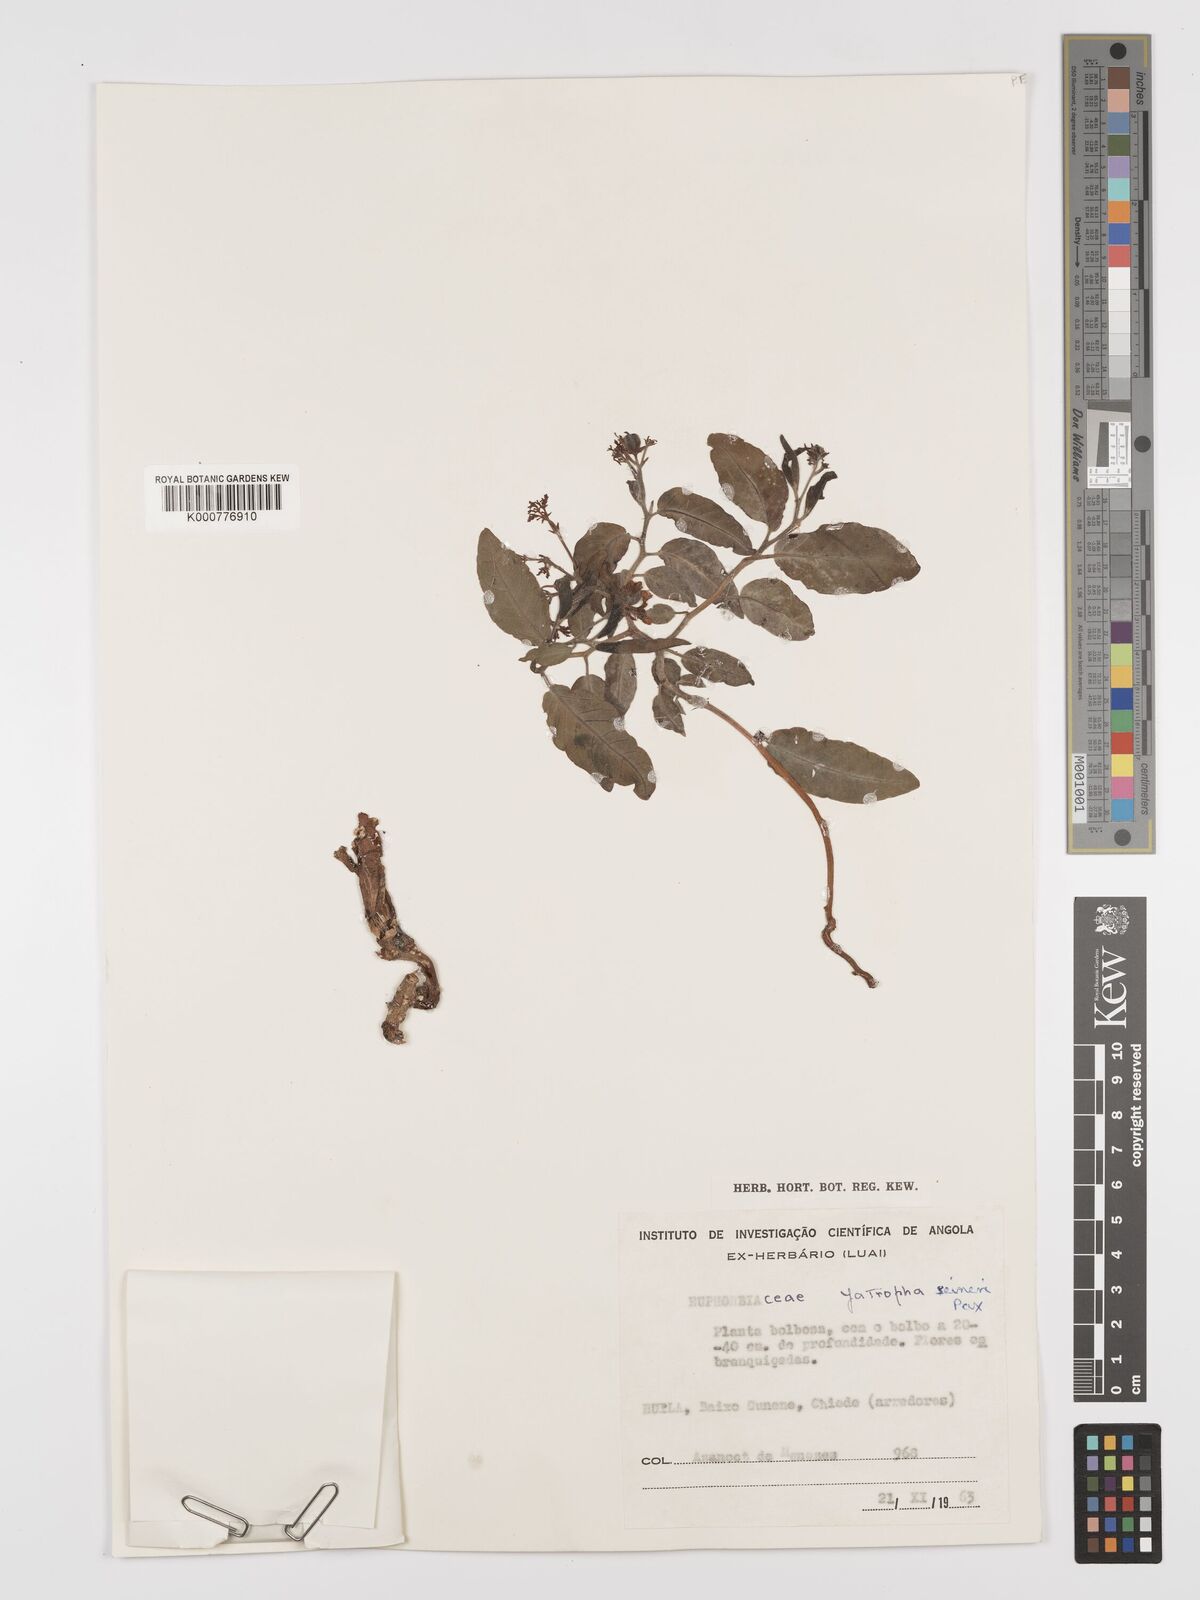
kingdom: Plantae
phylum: Tracheophyta
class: Magnoliopsida
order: Malpighiales
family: Euphorbiaceae
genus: Jatropha
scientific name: Jatropha seineri
